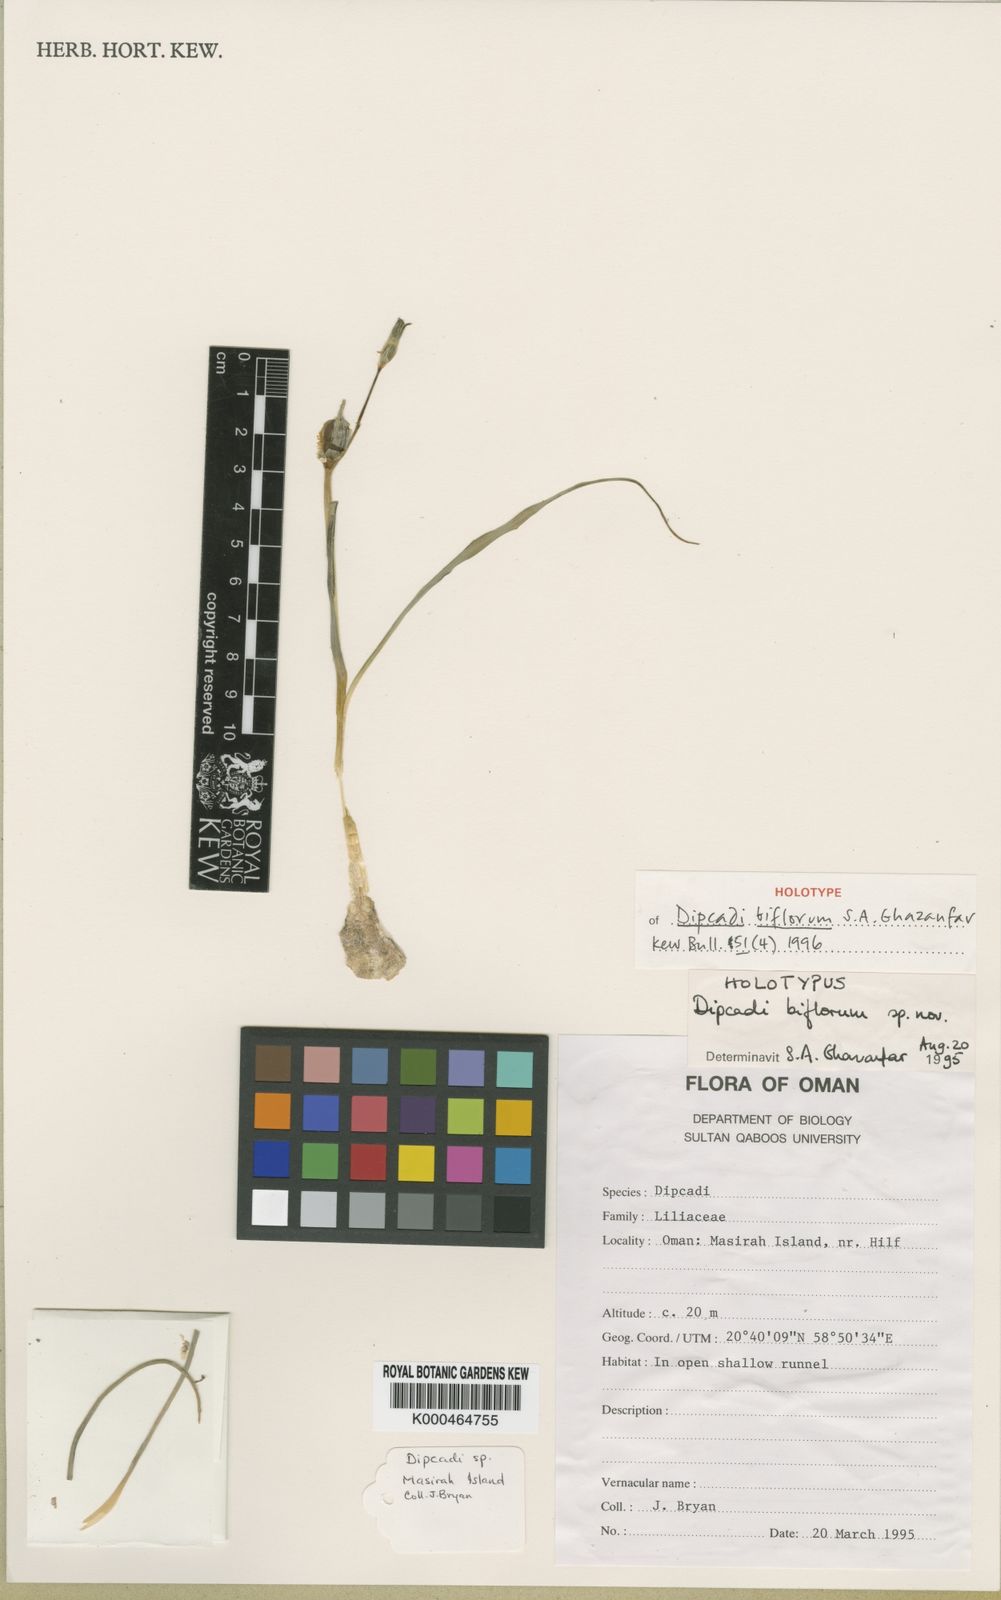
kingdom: Plantae
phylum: Tracheophyta
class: Liliopsida
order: Asparagales
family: Asparagaceae
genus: Dipcadi
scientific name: Dipcadi biflorum
